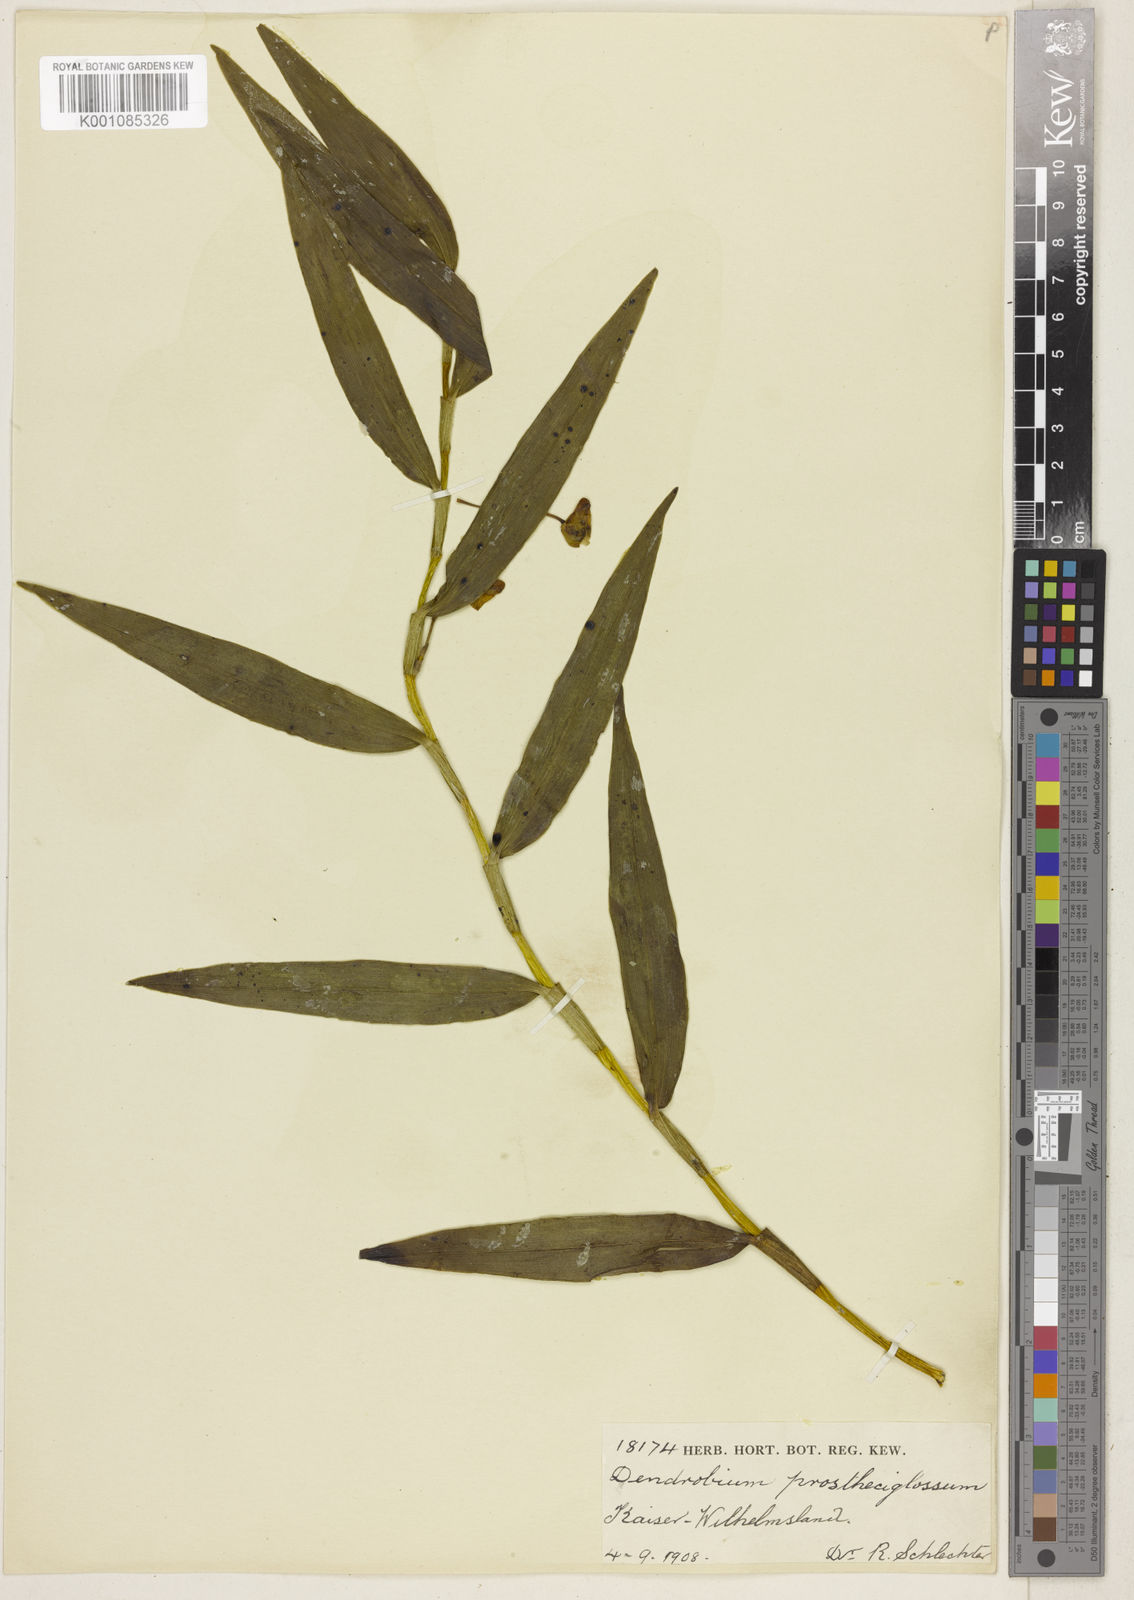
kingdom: Plantae
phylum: Tracheophyta
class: Liliopsida
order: Asparagales
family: Orchidaceae
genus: Dendrobium
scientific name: Dendrobium prostheciglossum
